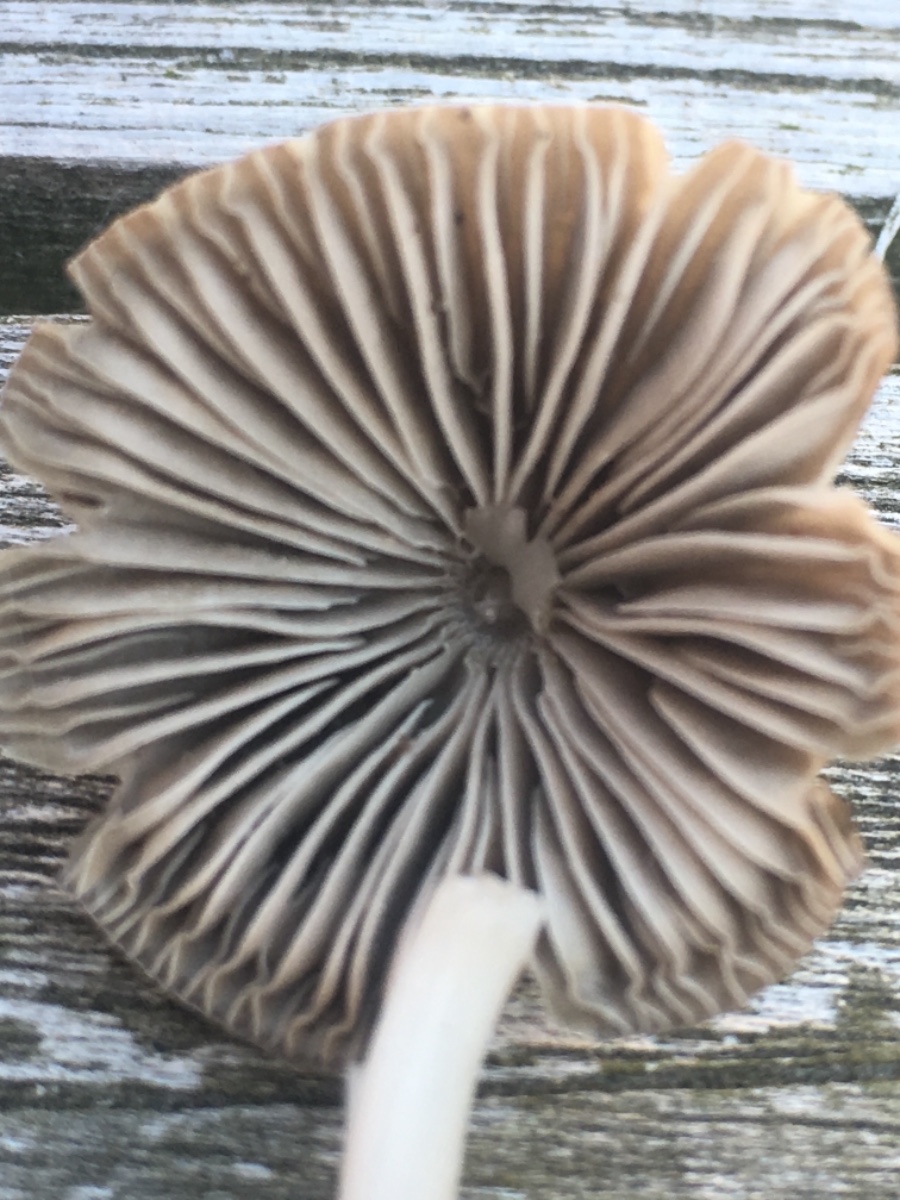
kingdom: Fungi
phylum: Basidiomycota
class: Agaricomycetes
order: Agaricales
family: Mycenaceae
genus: Mycena
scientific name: Mycena
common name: huesvamp
